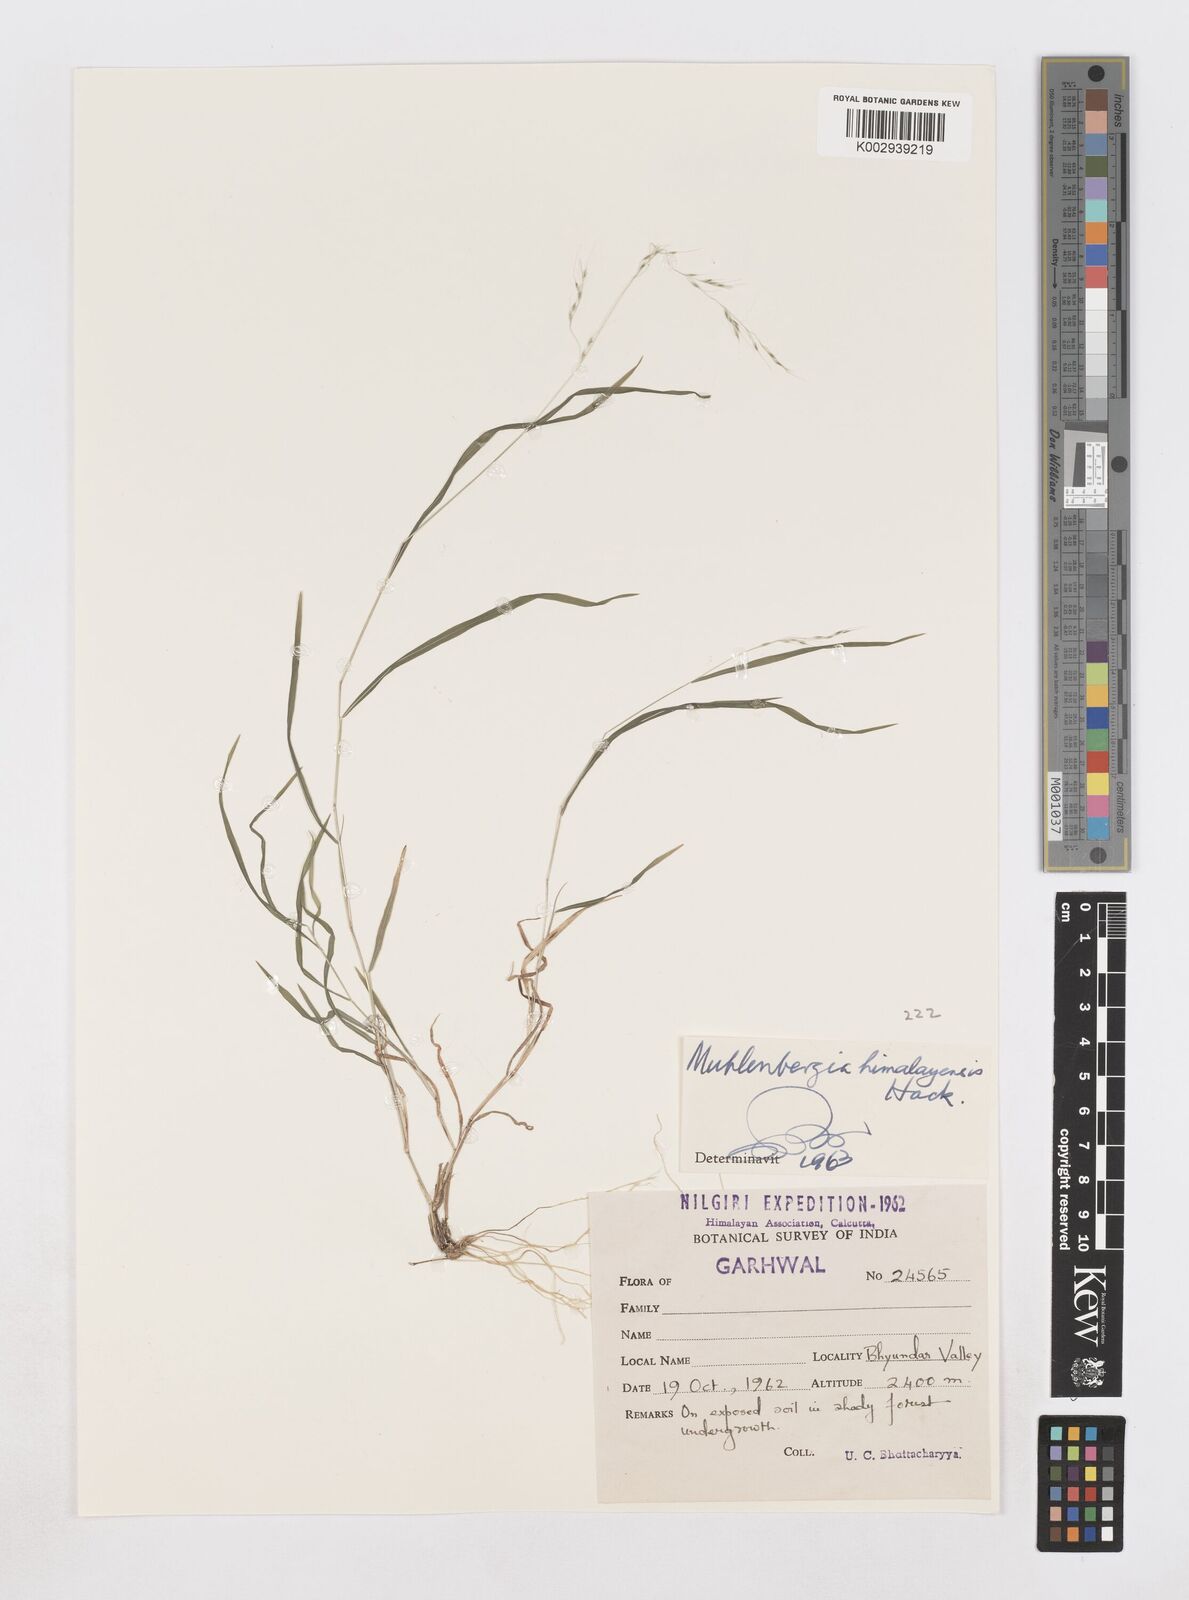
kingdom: Plantae
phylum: Tracheophyta
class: Liliopsida
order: Poales
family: Poaceae
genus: Muhlenbergia
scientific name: Muhlenbergia himalayensis
